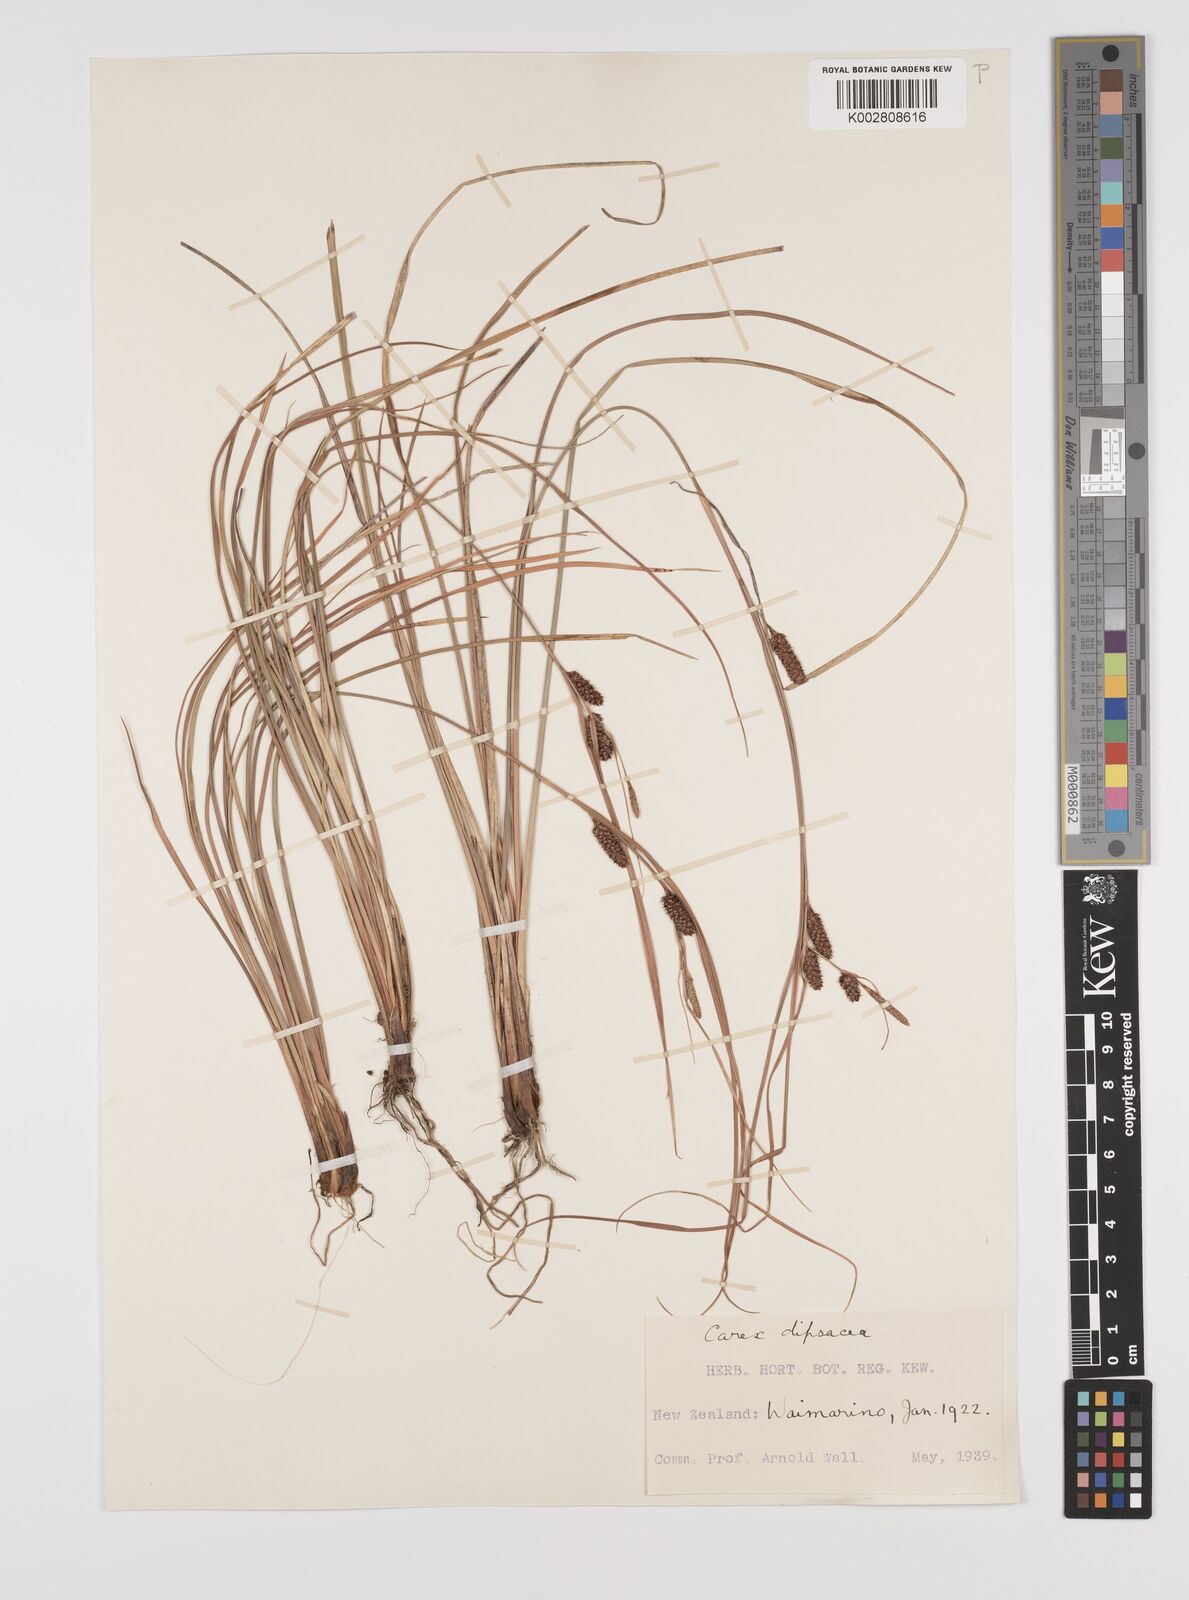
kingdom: Plantae
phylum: Tracheophyta
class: Liliopsida
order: Poales
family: Cyperaceae
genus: Carex
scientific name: Carex dipsacea
